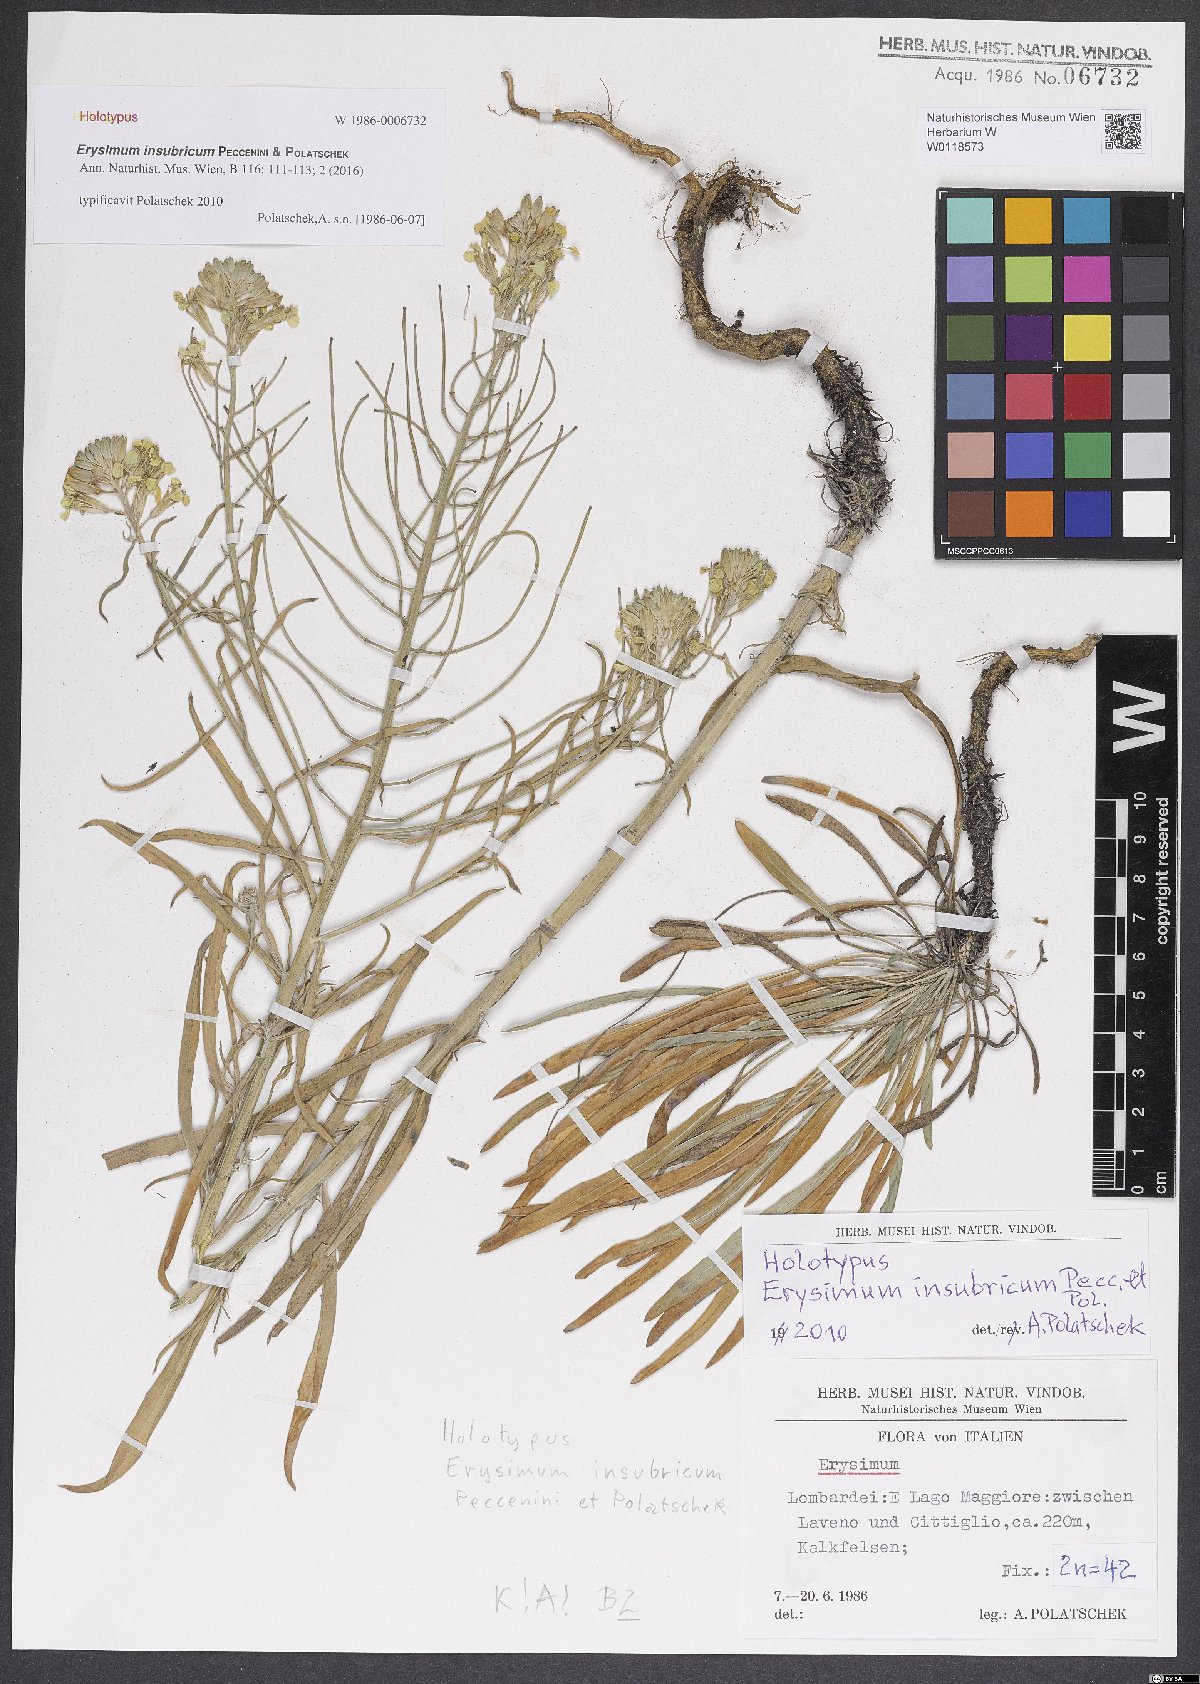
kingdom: Plantae
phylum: Tracheophyta
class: Magnoliopsida
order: Brassicales
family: Brassicaceae
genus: Erysimum
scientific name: Erysimum insubricum
